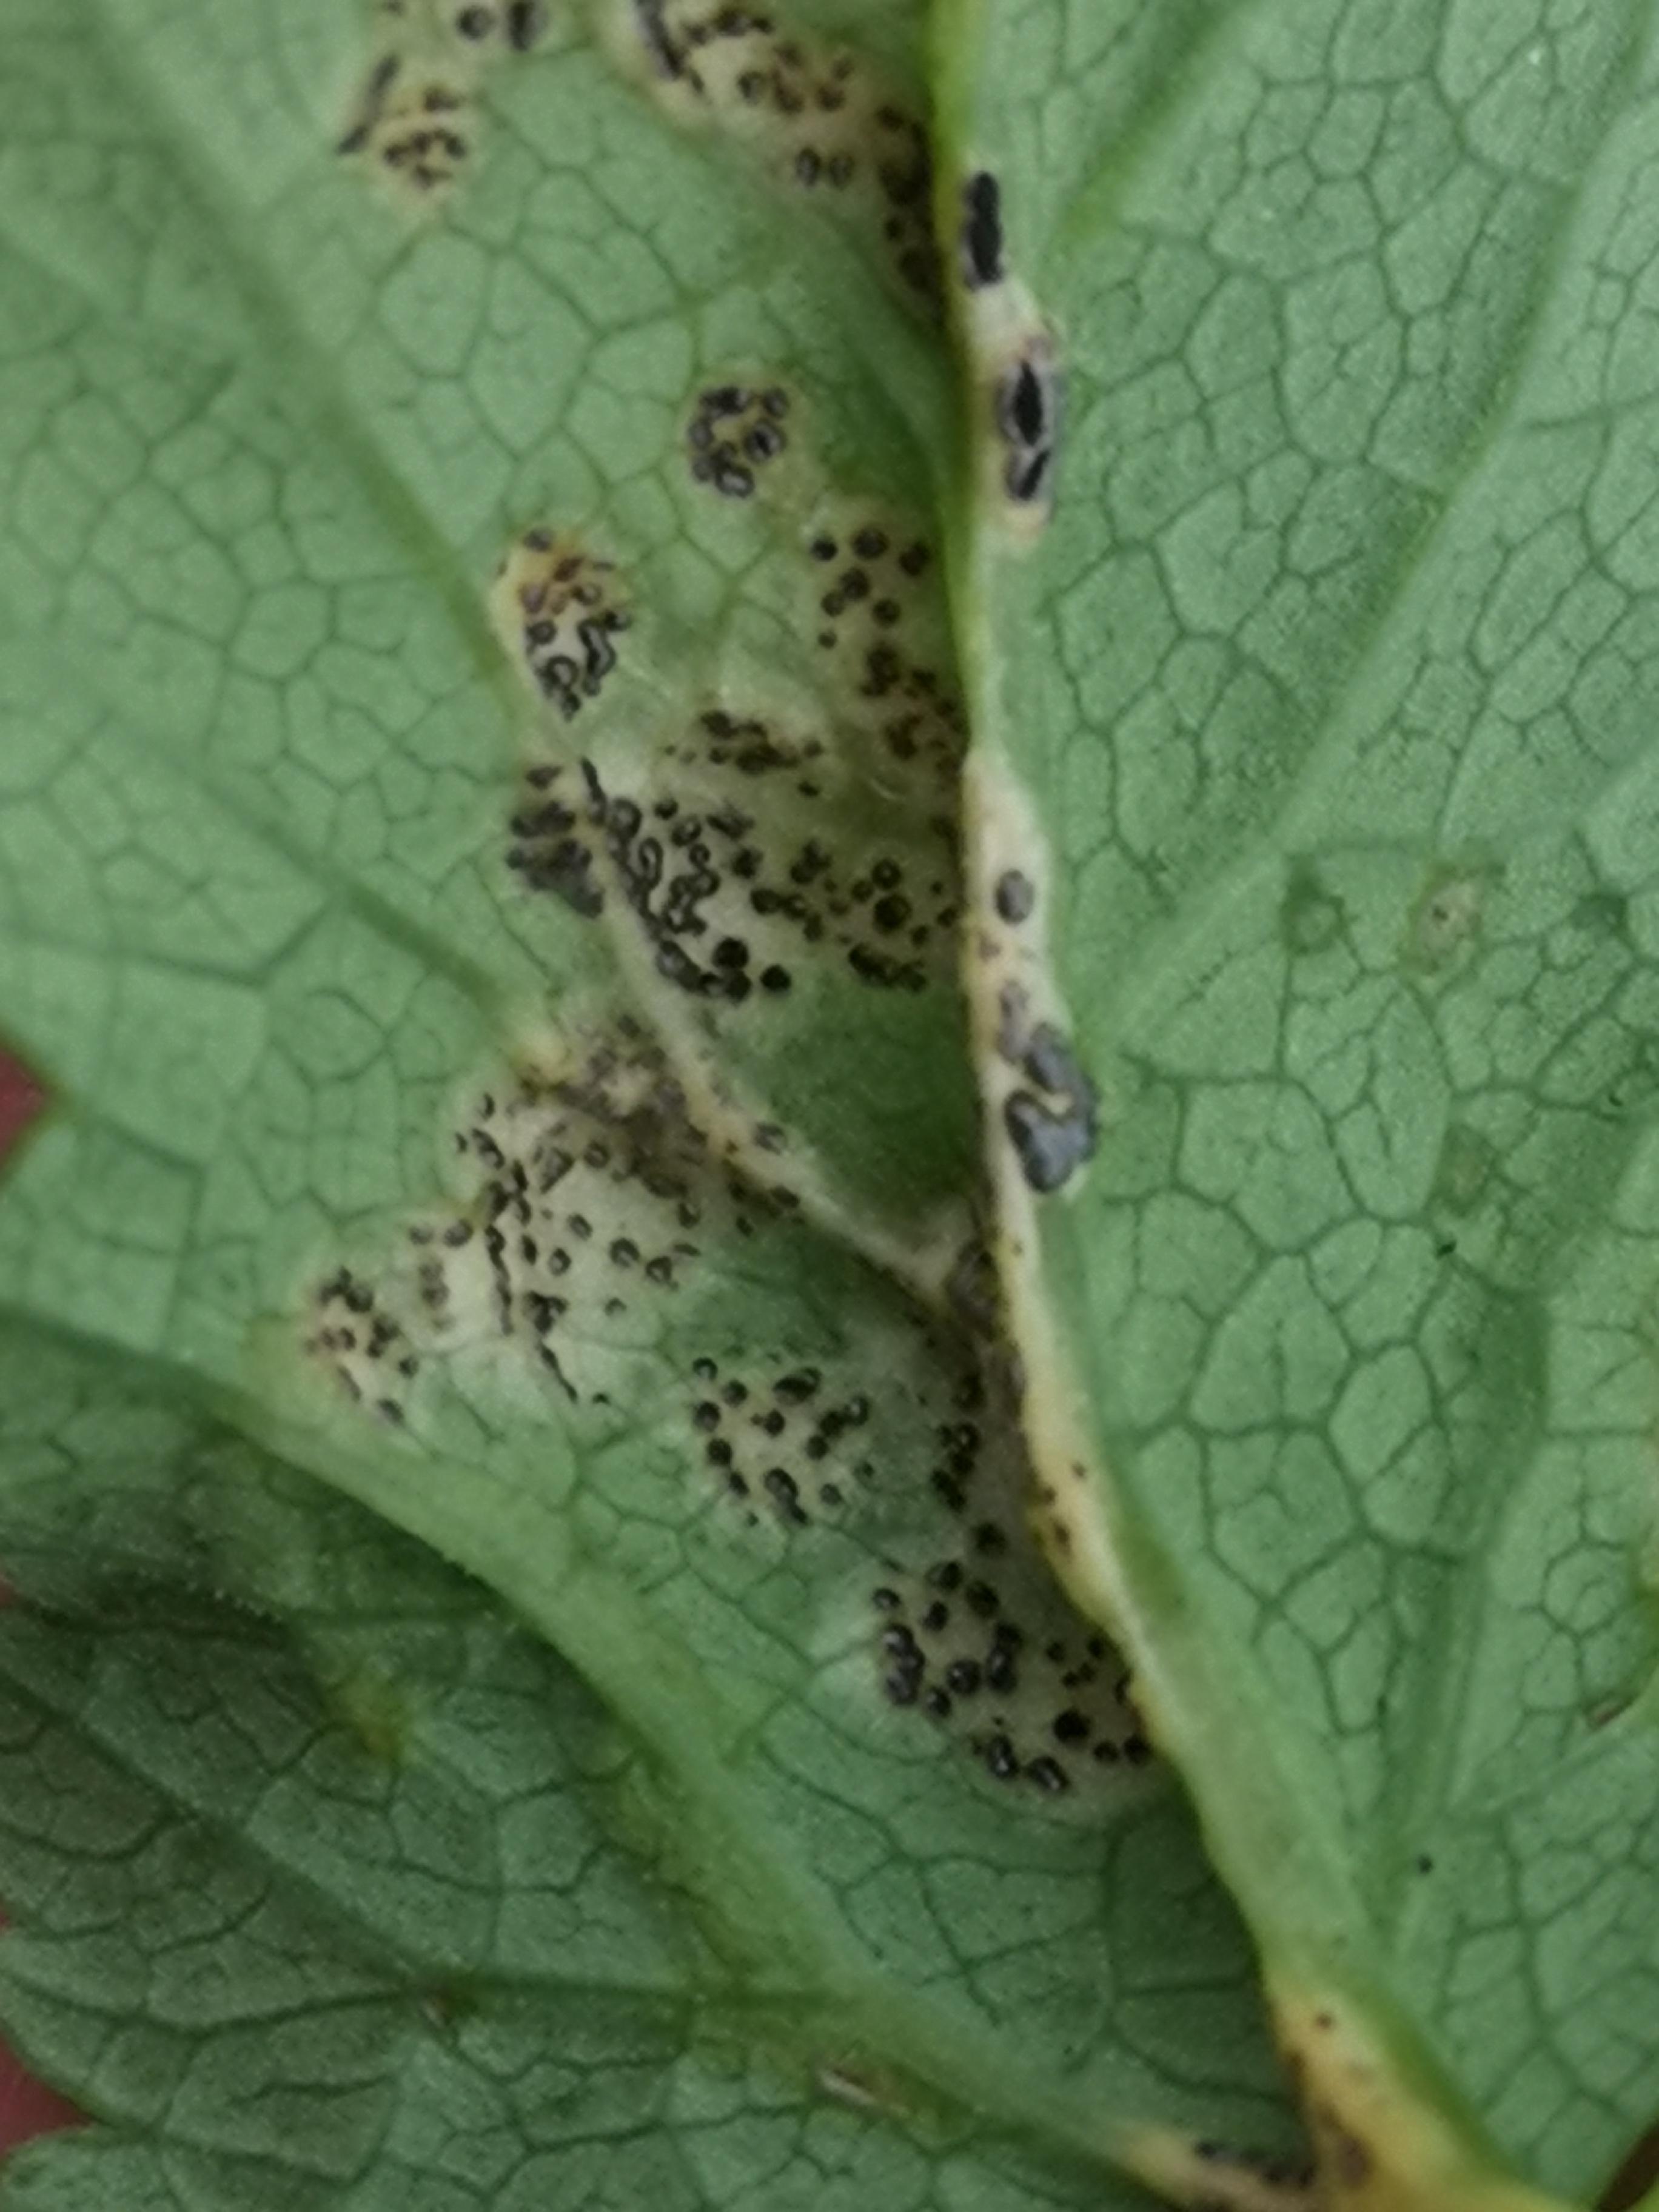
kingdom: Fungi
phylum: Basidiomycota
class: Pucciniomycetes
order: Pucciniales
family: Pucciniaceae
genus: Puccinia
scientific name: Puccinia
